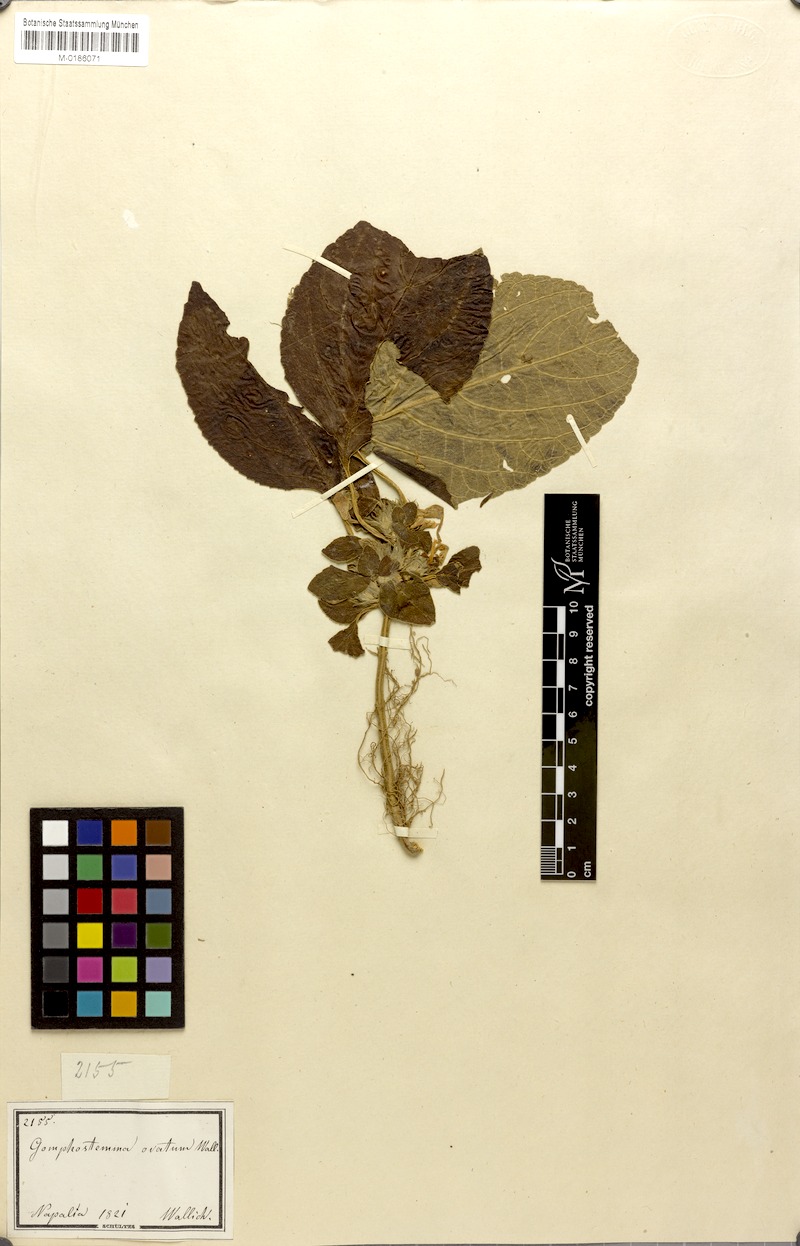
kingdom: Plantae
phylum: Tracheophyta
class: Magnoliopsida
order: Lamiales
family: Lamiaceae
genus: Gomphostemma
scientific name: Gomphostemma ovatum
